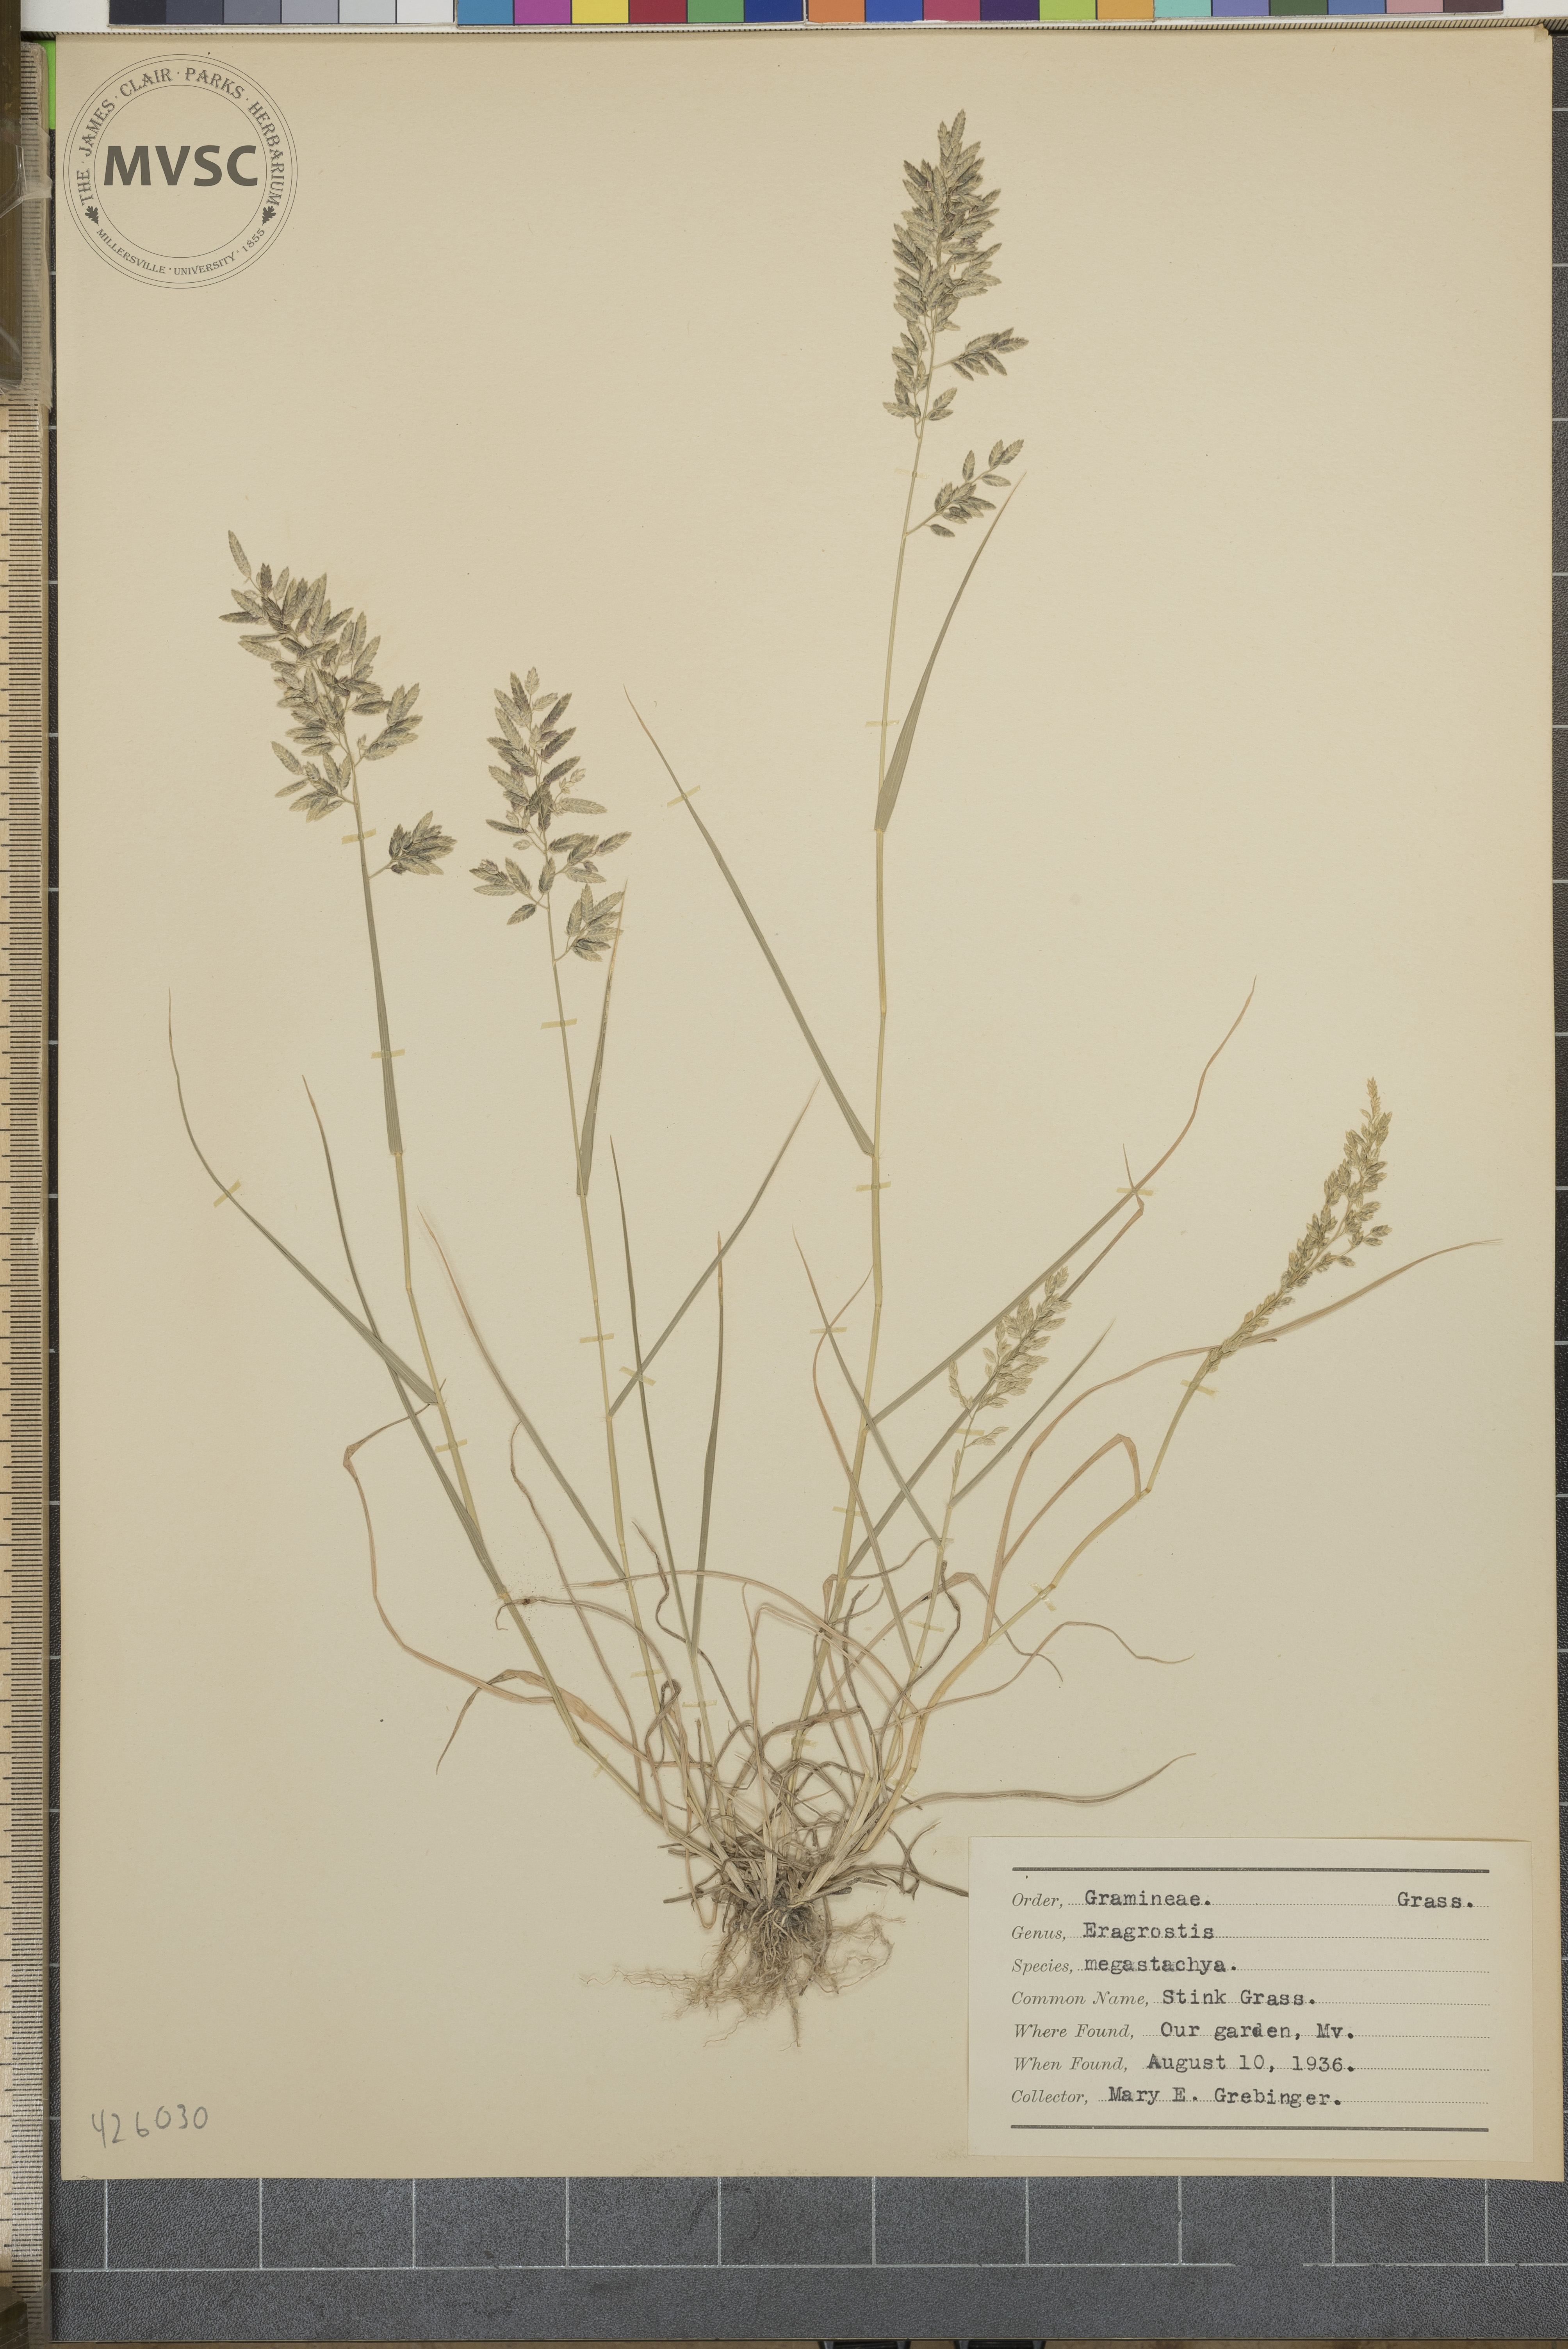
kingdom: Plantae
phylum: Tracheophyta
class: Liliopsida
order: Poales
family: Poaceae
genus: Eragrostis
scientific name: Eragrostis cilianensis
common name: Stink grass
